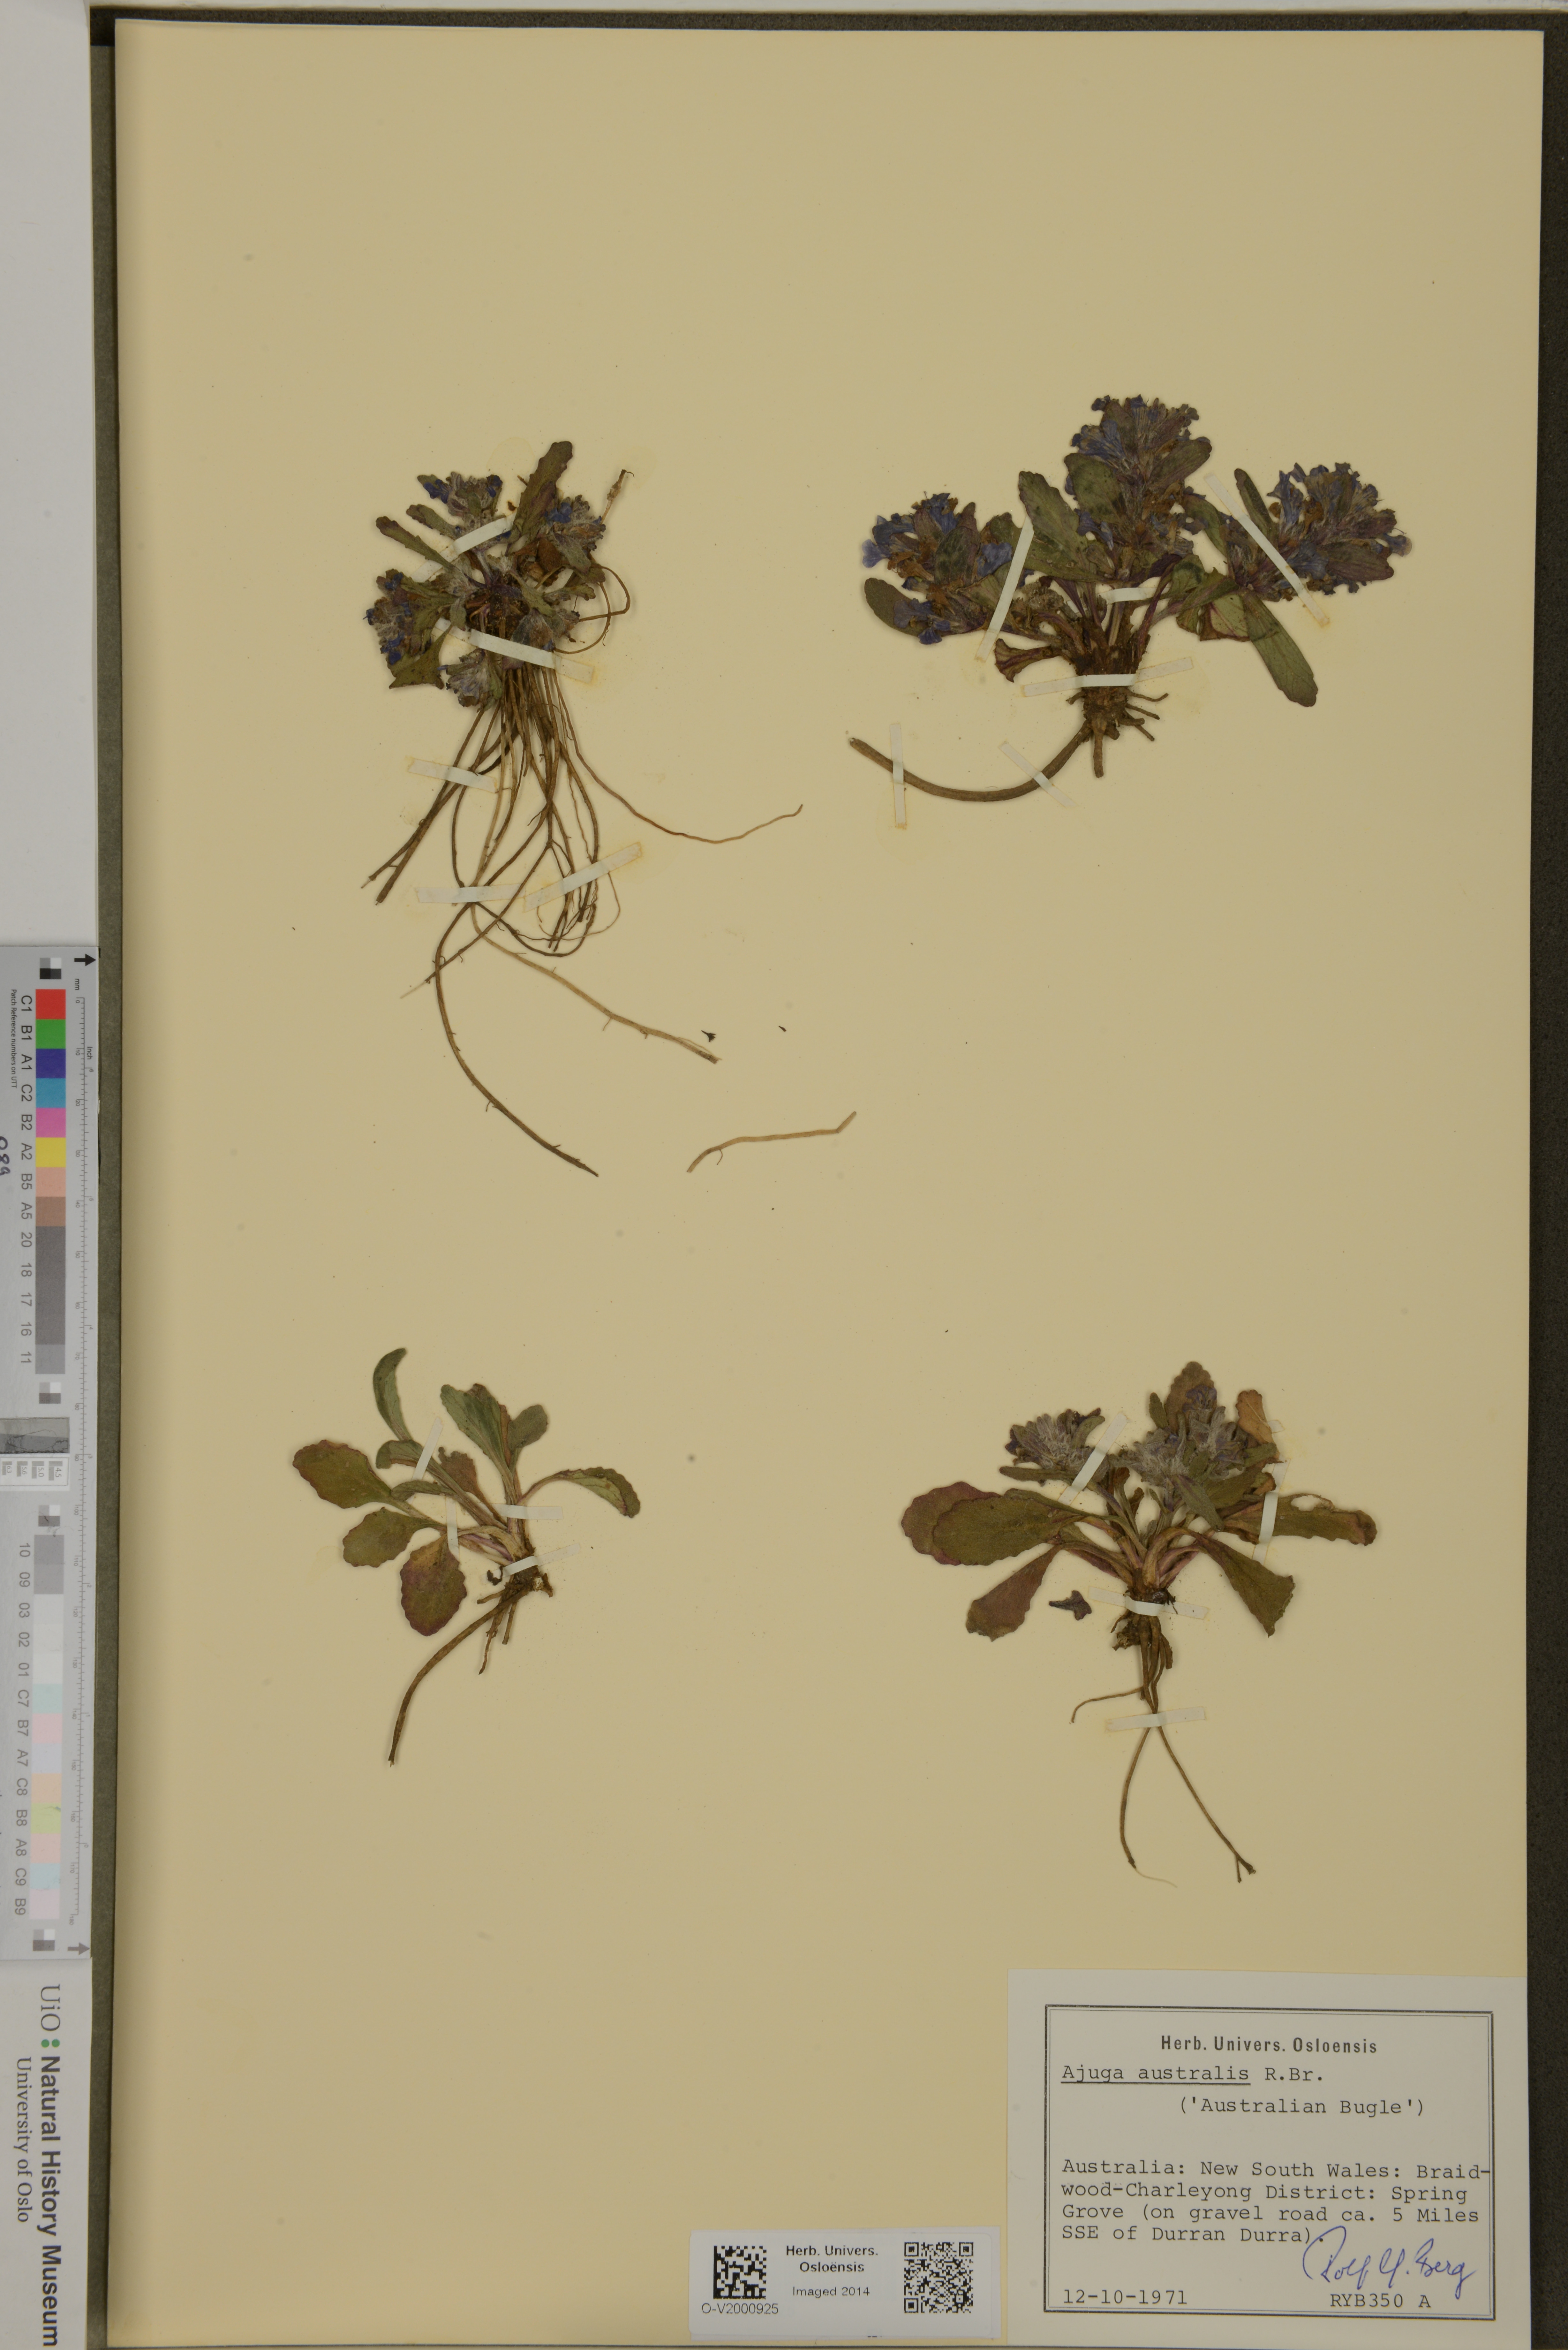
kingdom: Plantae
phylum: Tracheophyta
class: Magnoliopsida
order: Lamiales
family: Lamiaceae
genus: Ajuga
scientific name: Ajuga australis
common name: Australian bugle
